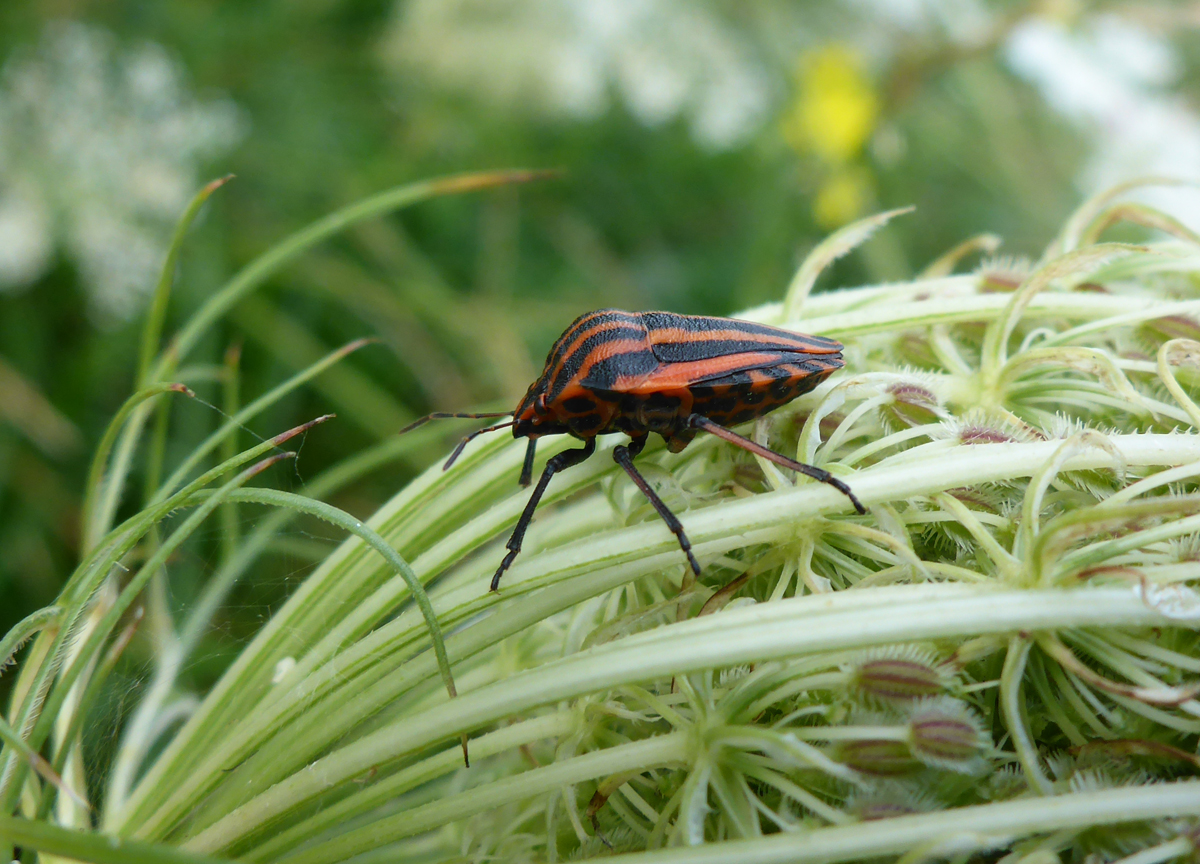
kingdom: Animalia
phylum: Arthropoda
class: Insecta
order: Hemiptera
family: Pentatomidae
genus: Graphosoma
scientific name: Graphosoma lineatum
